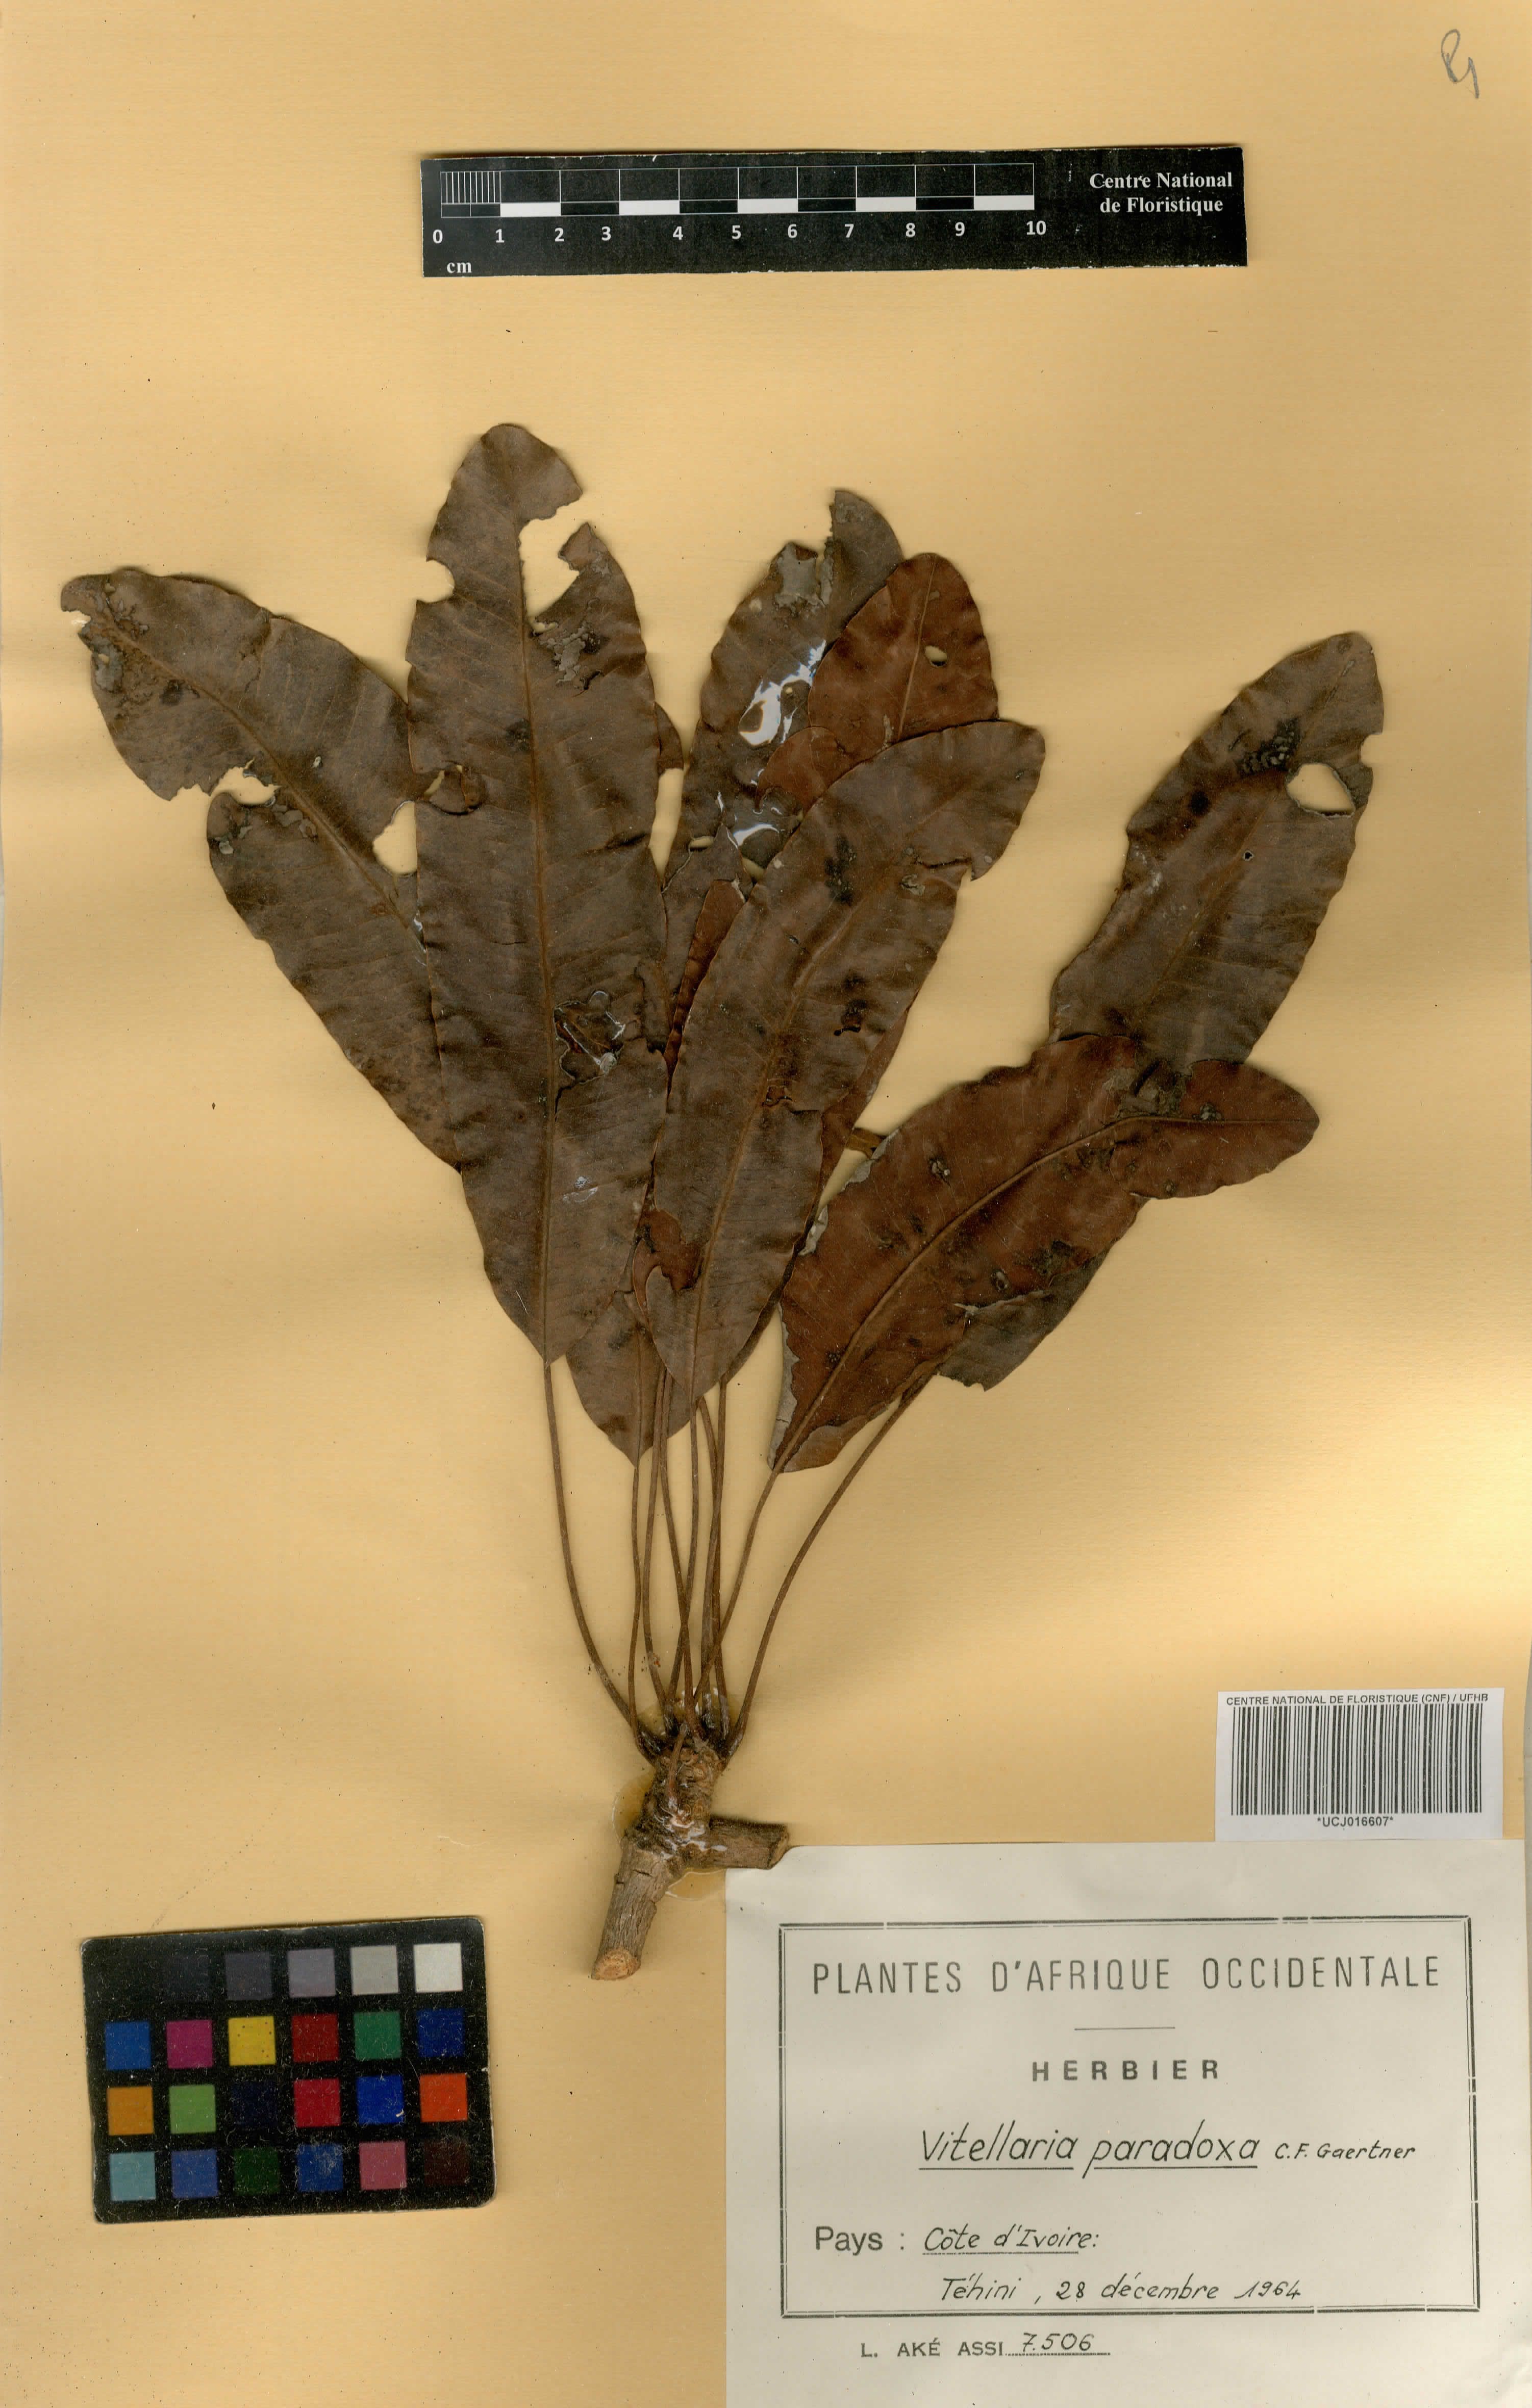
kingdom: Plantae
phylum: Tracheophyta
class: Magnoliopsida
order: Ericales
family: Sapotaceae
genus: Vitellaria
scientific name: Vitellaria paradoxa
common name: Shea butter tree
